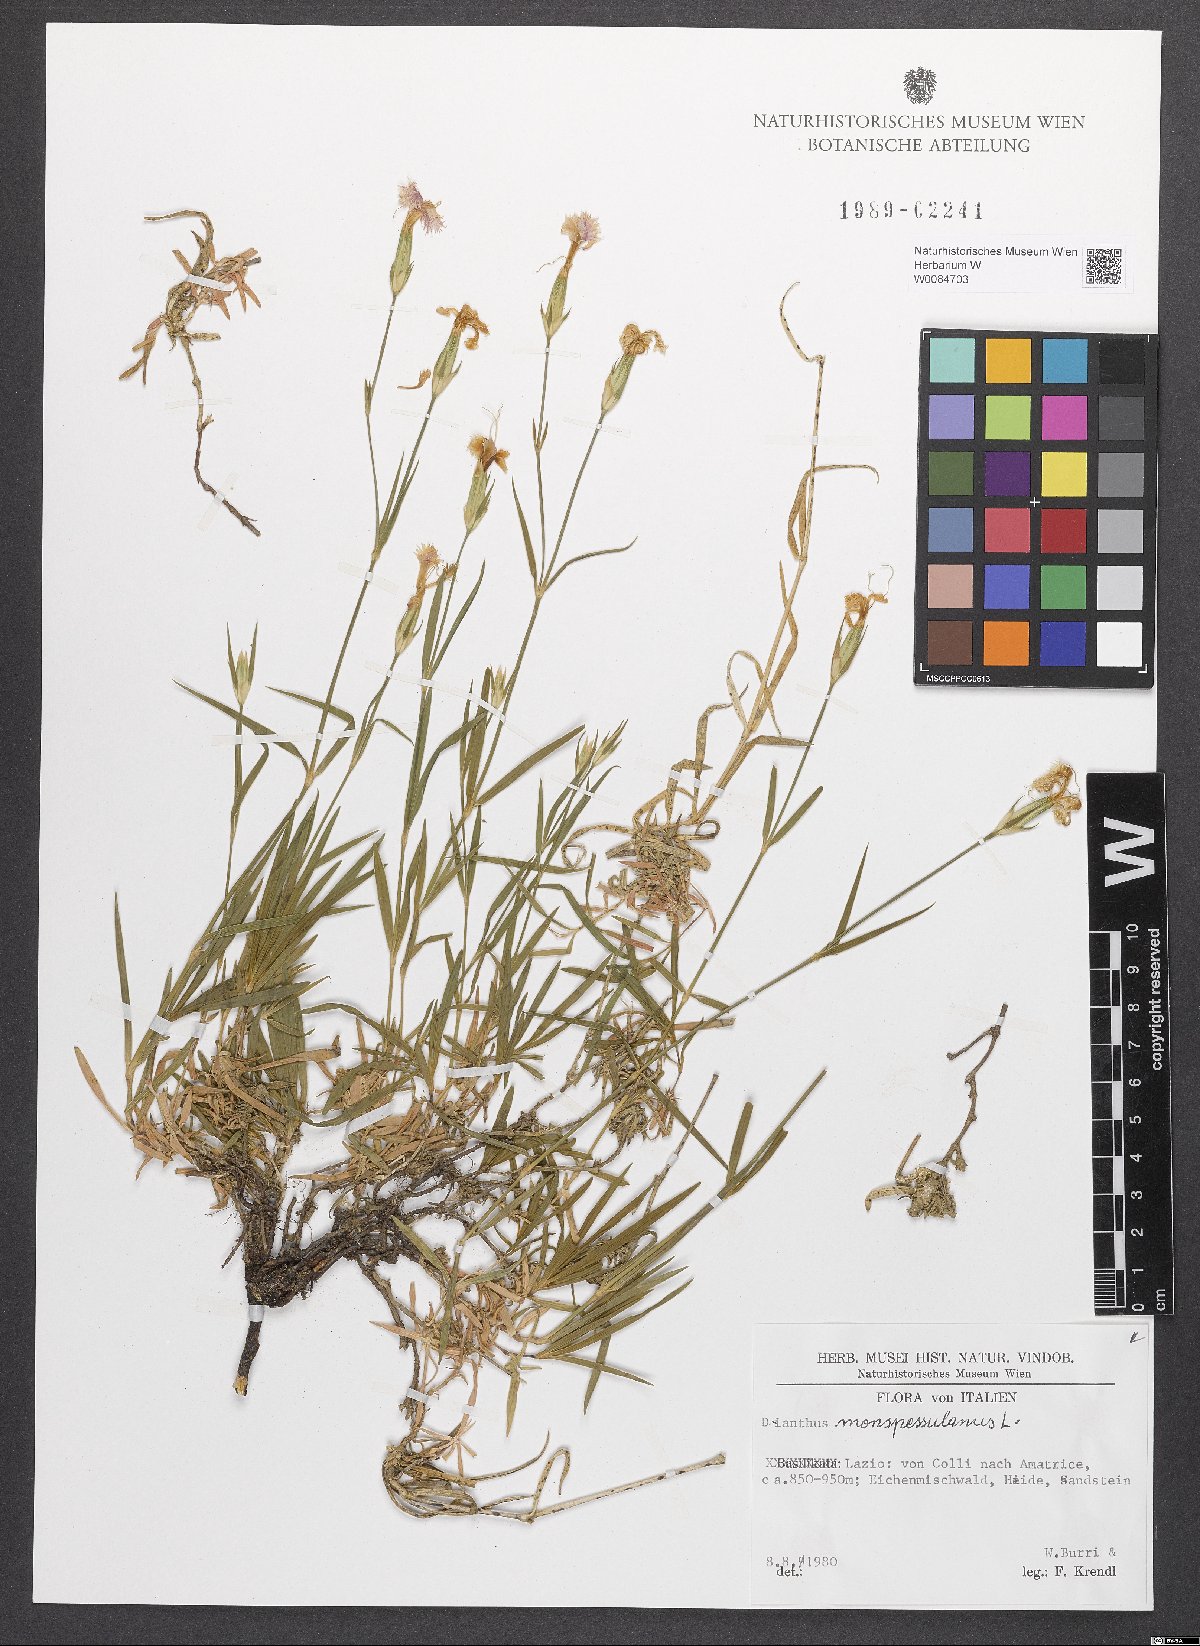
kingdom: Plantae
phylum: Tracheophyta
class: Magnoliopsida
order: Caryophyllales
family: Caryophyllaceae
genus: Dianthus
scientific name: Dianthus hyssopifolius
